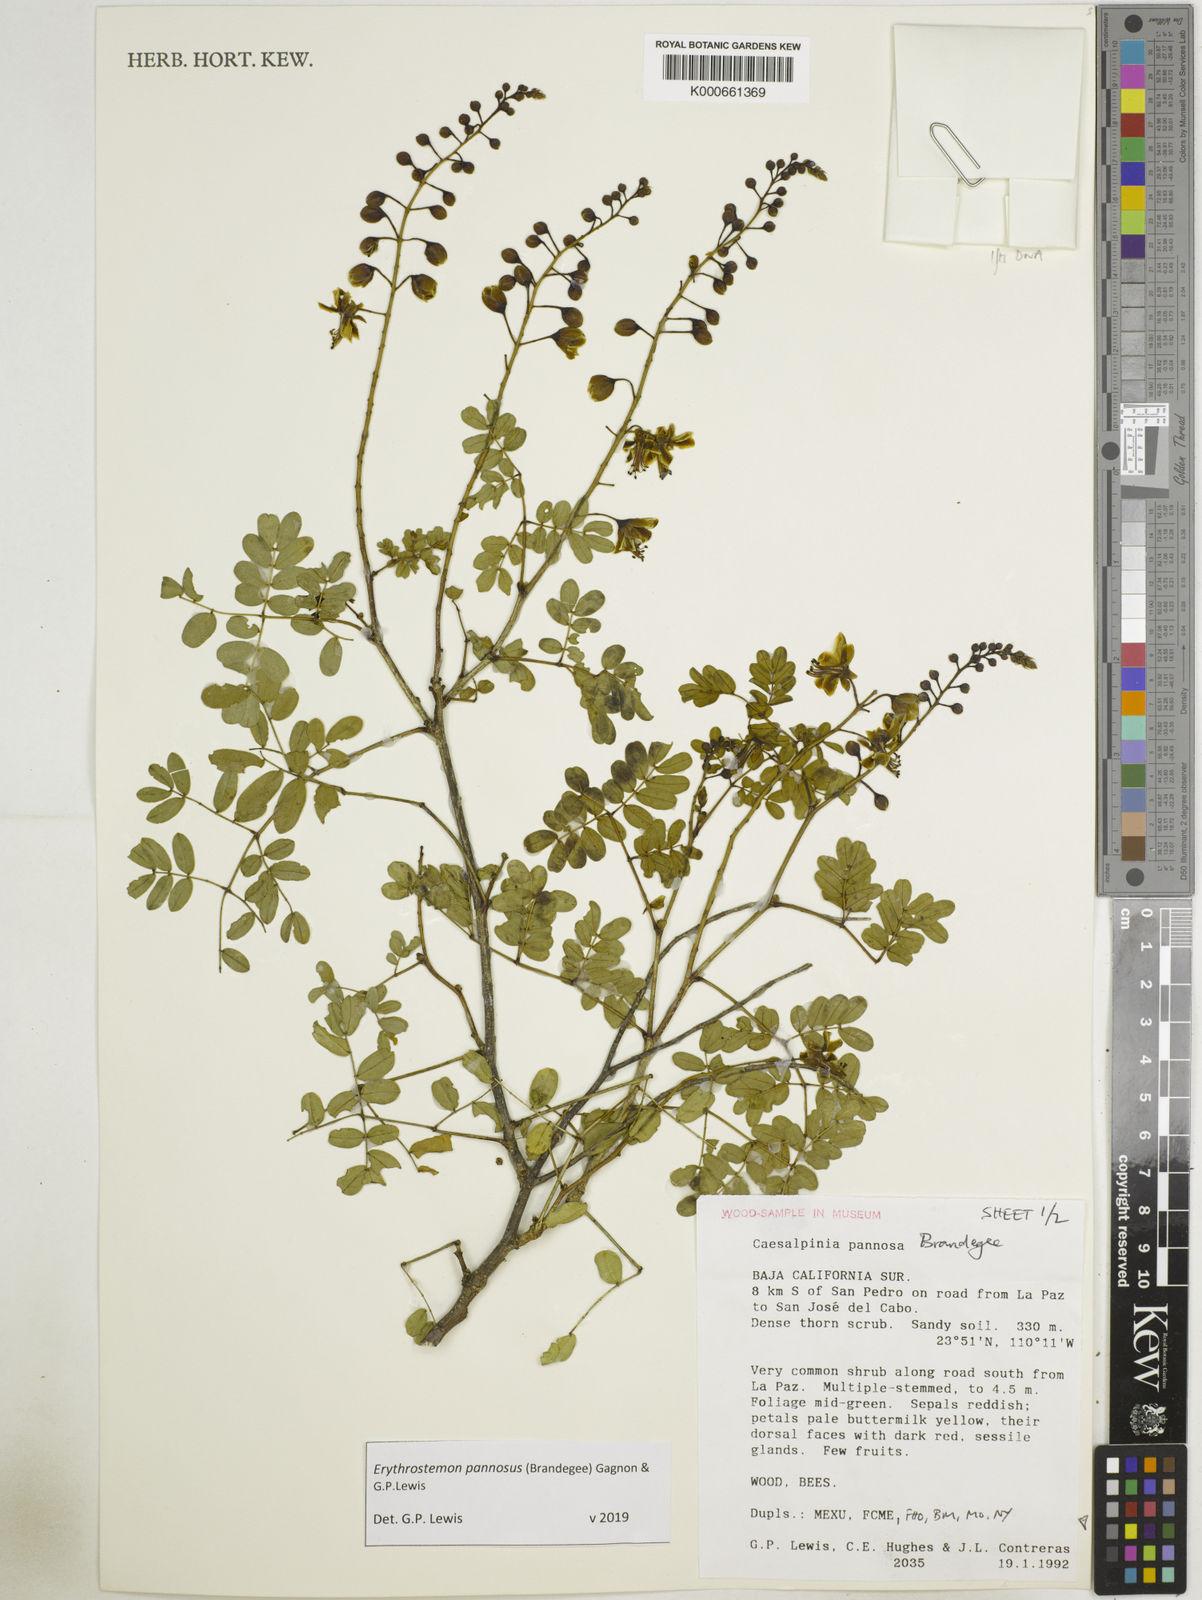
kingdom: Plantae
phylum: Tracheophyta
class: Magnoliopsida
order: Fabales
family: Fabaceae
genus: Erythrostemon
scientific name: Erythrostemon pannosus
